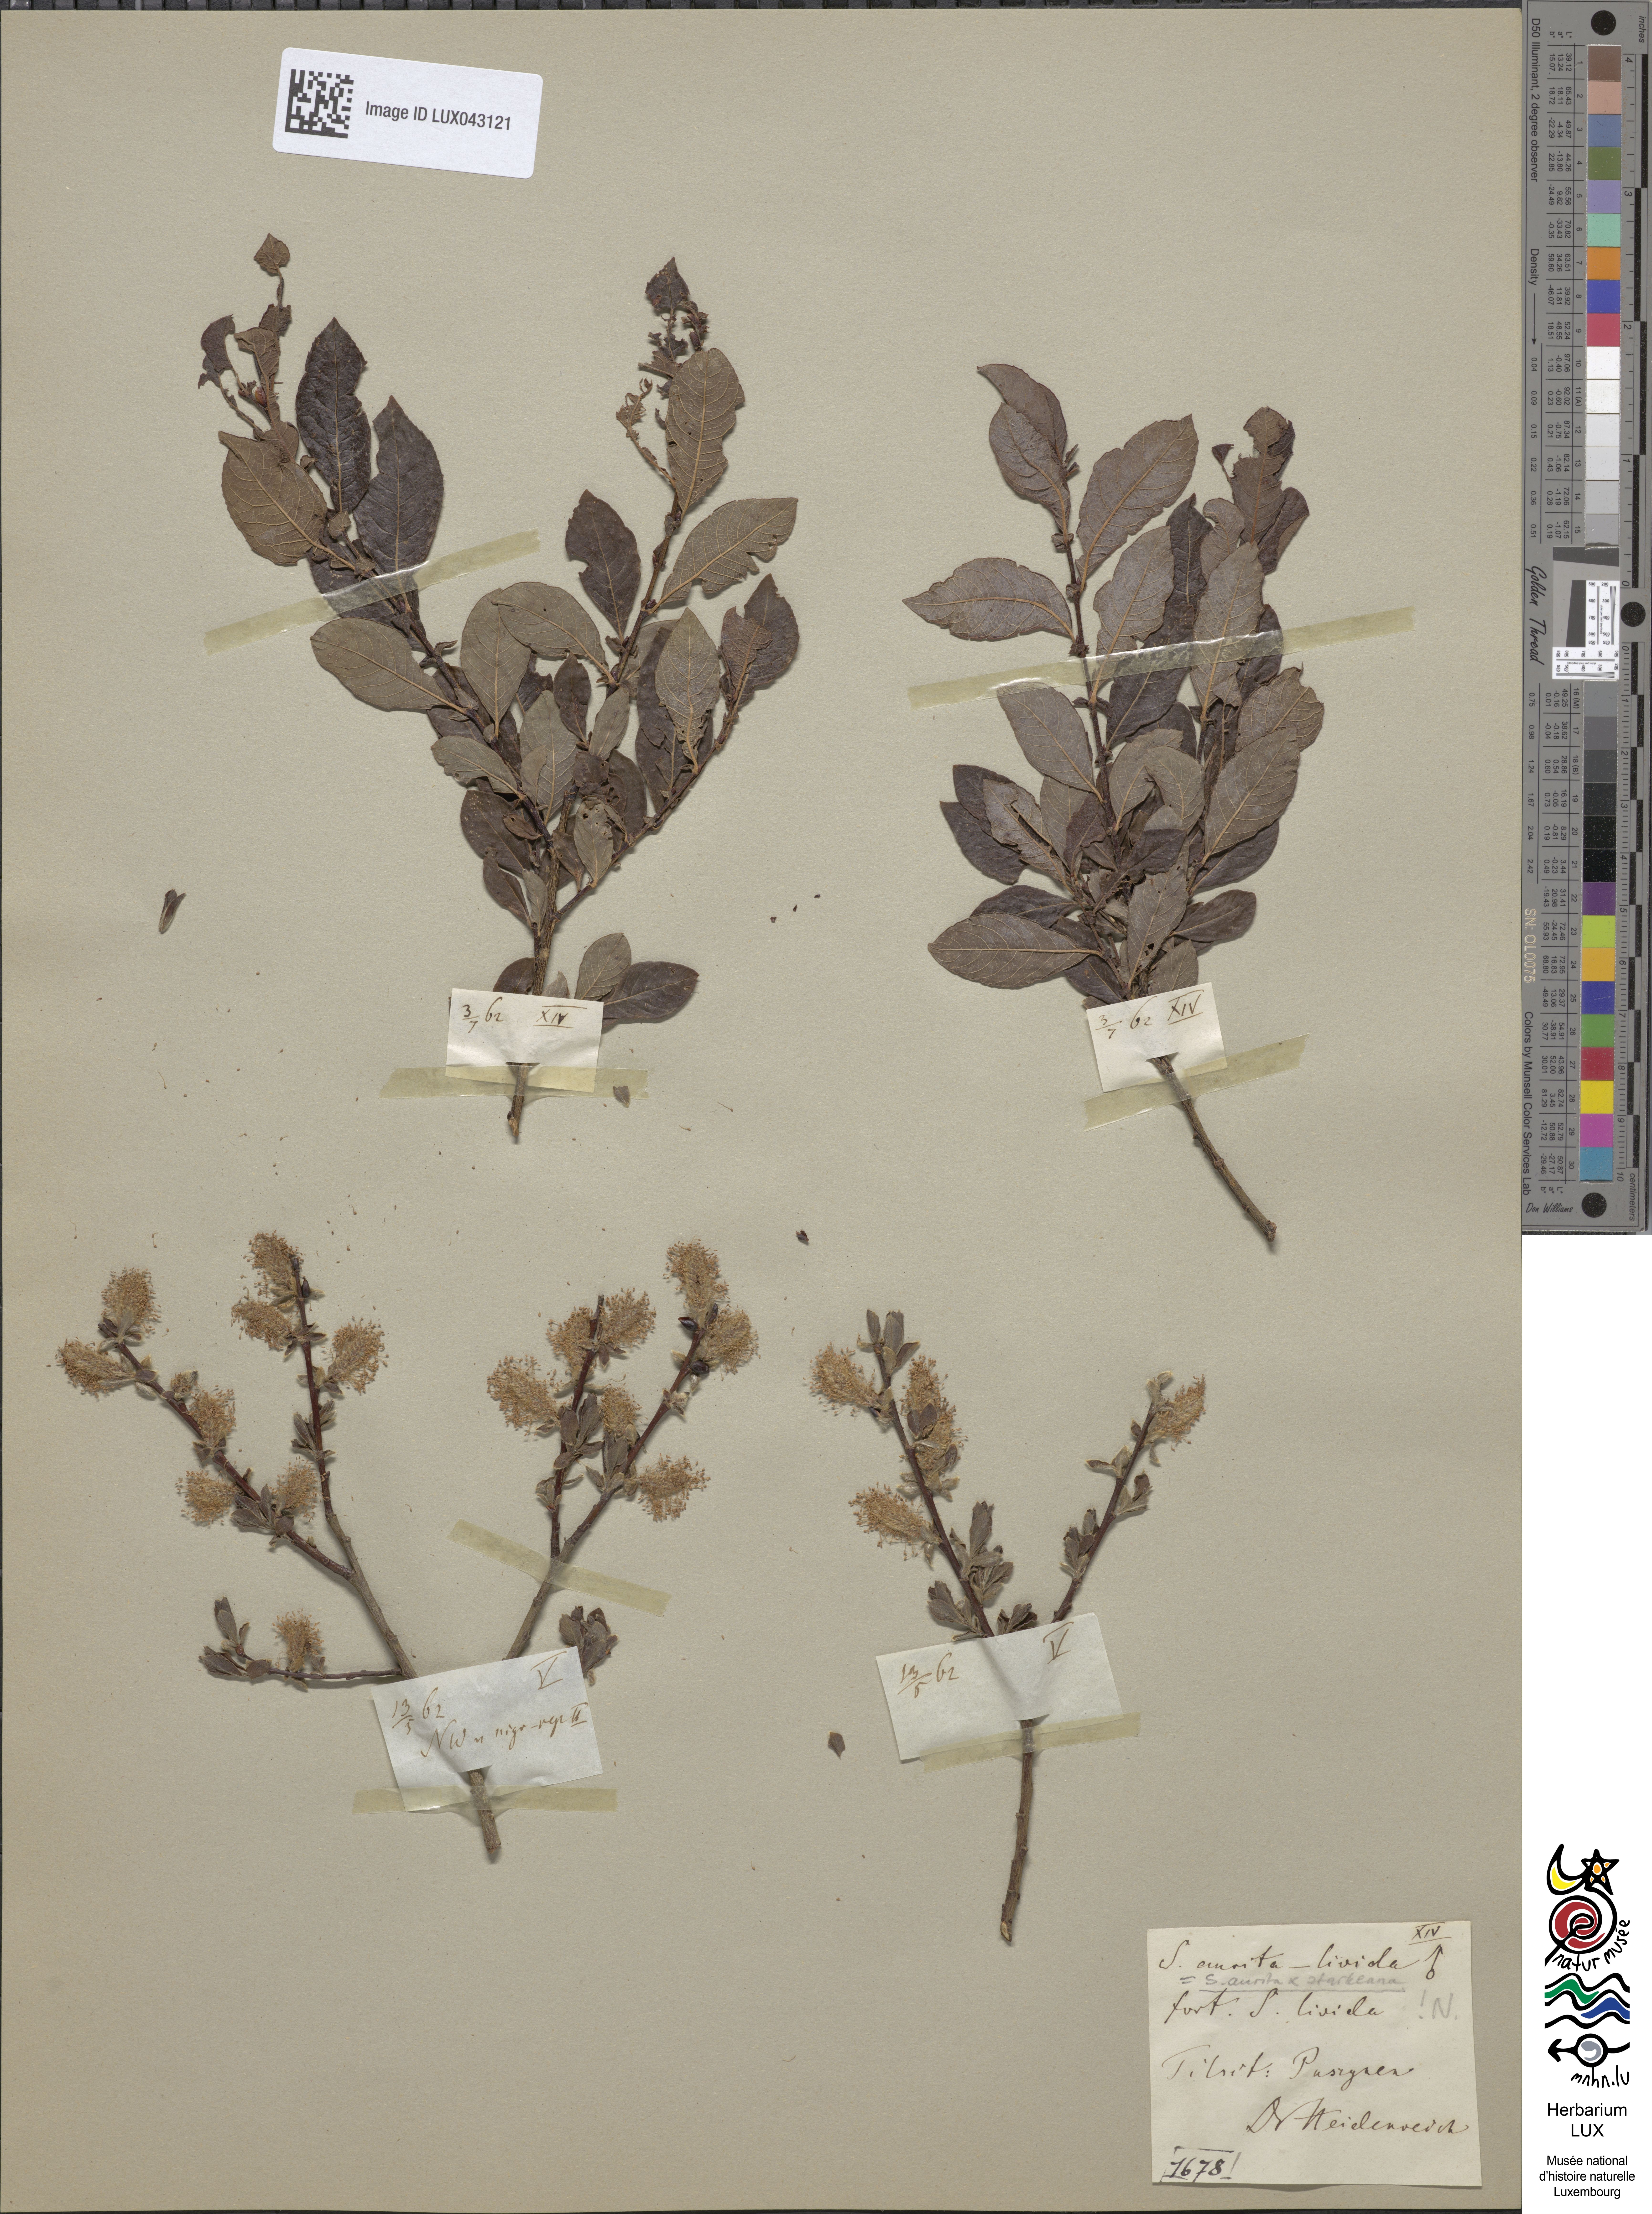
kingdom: Plantae
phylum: Tracheophyta
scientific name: Tracheophyta
